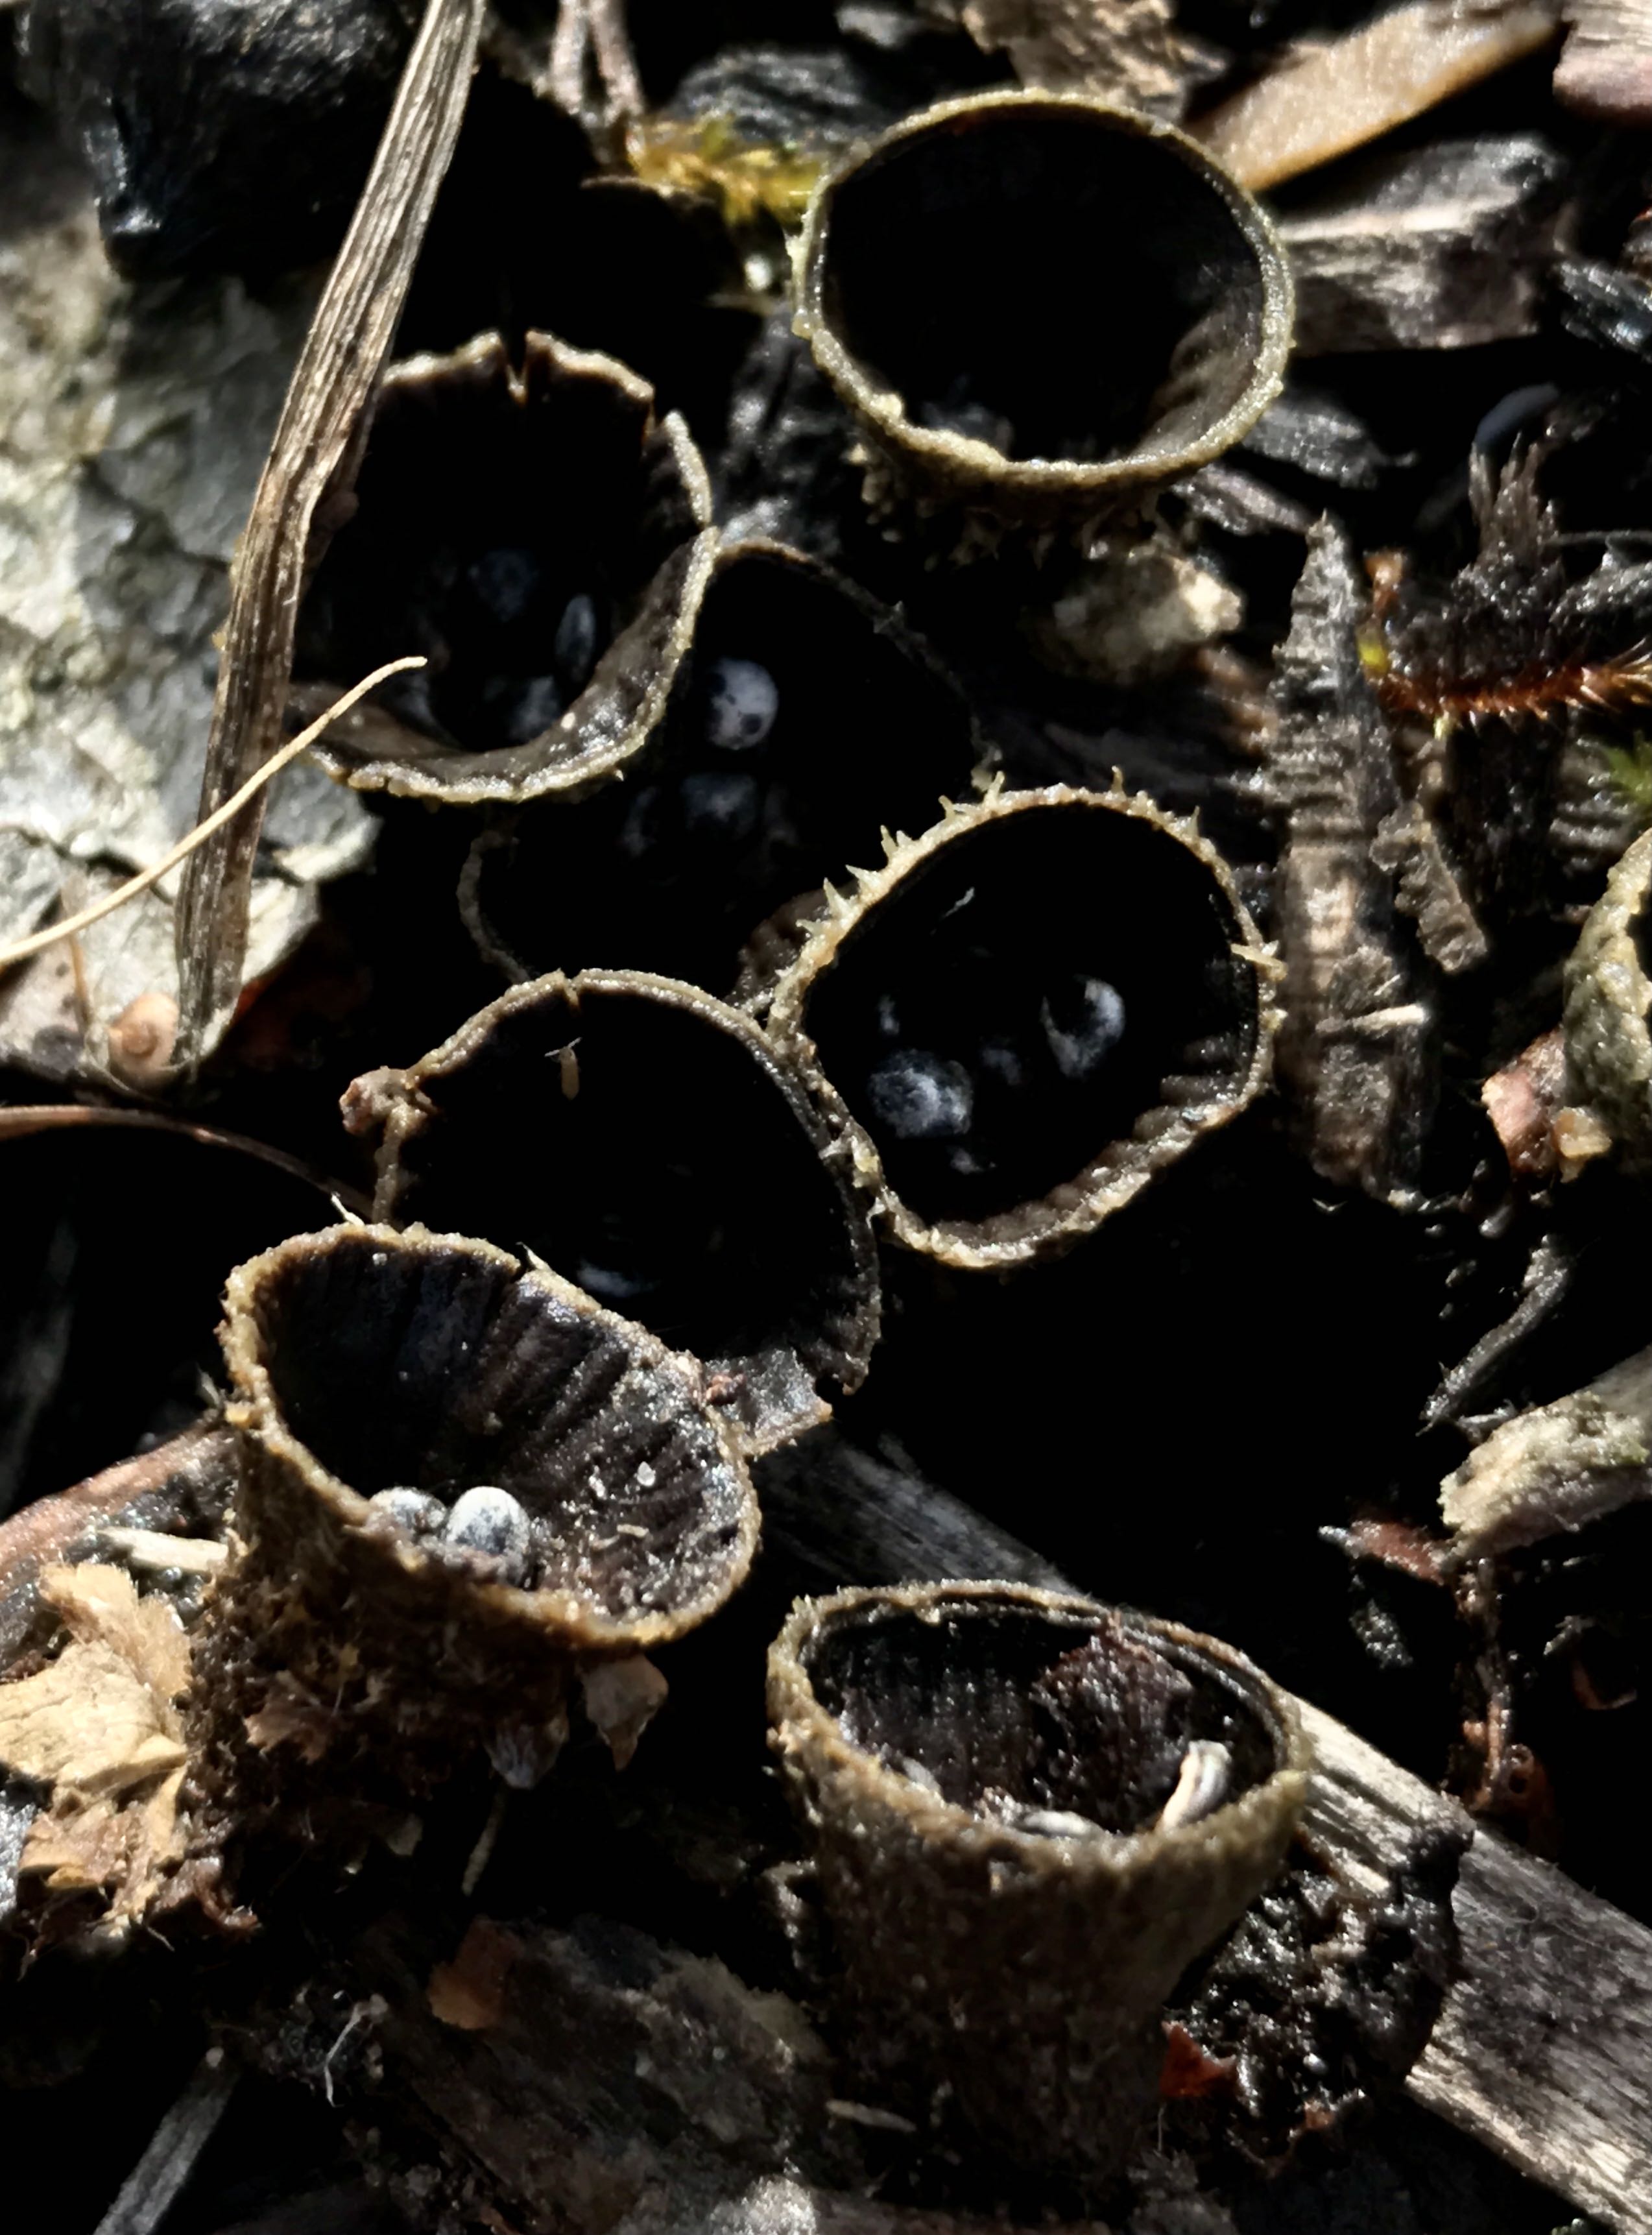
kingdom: Fungi
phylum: Basidiomycota
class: Agaricomycetes
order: Agaricales
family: Agaricaceae
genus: Cyathus
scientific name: Cyathus striatus
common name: stribet redesvamp
